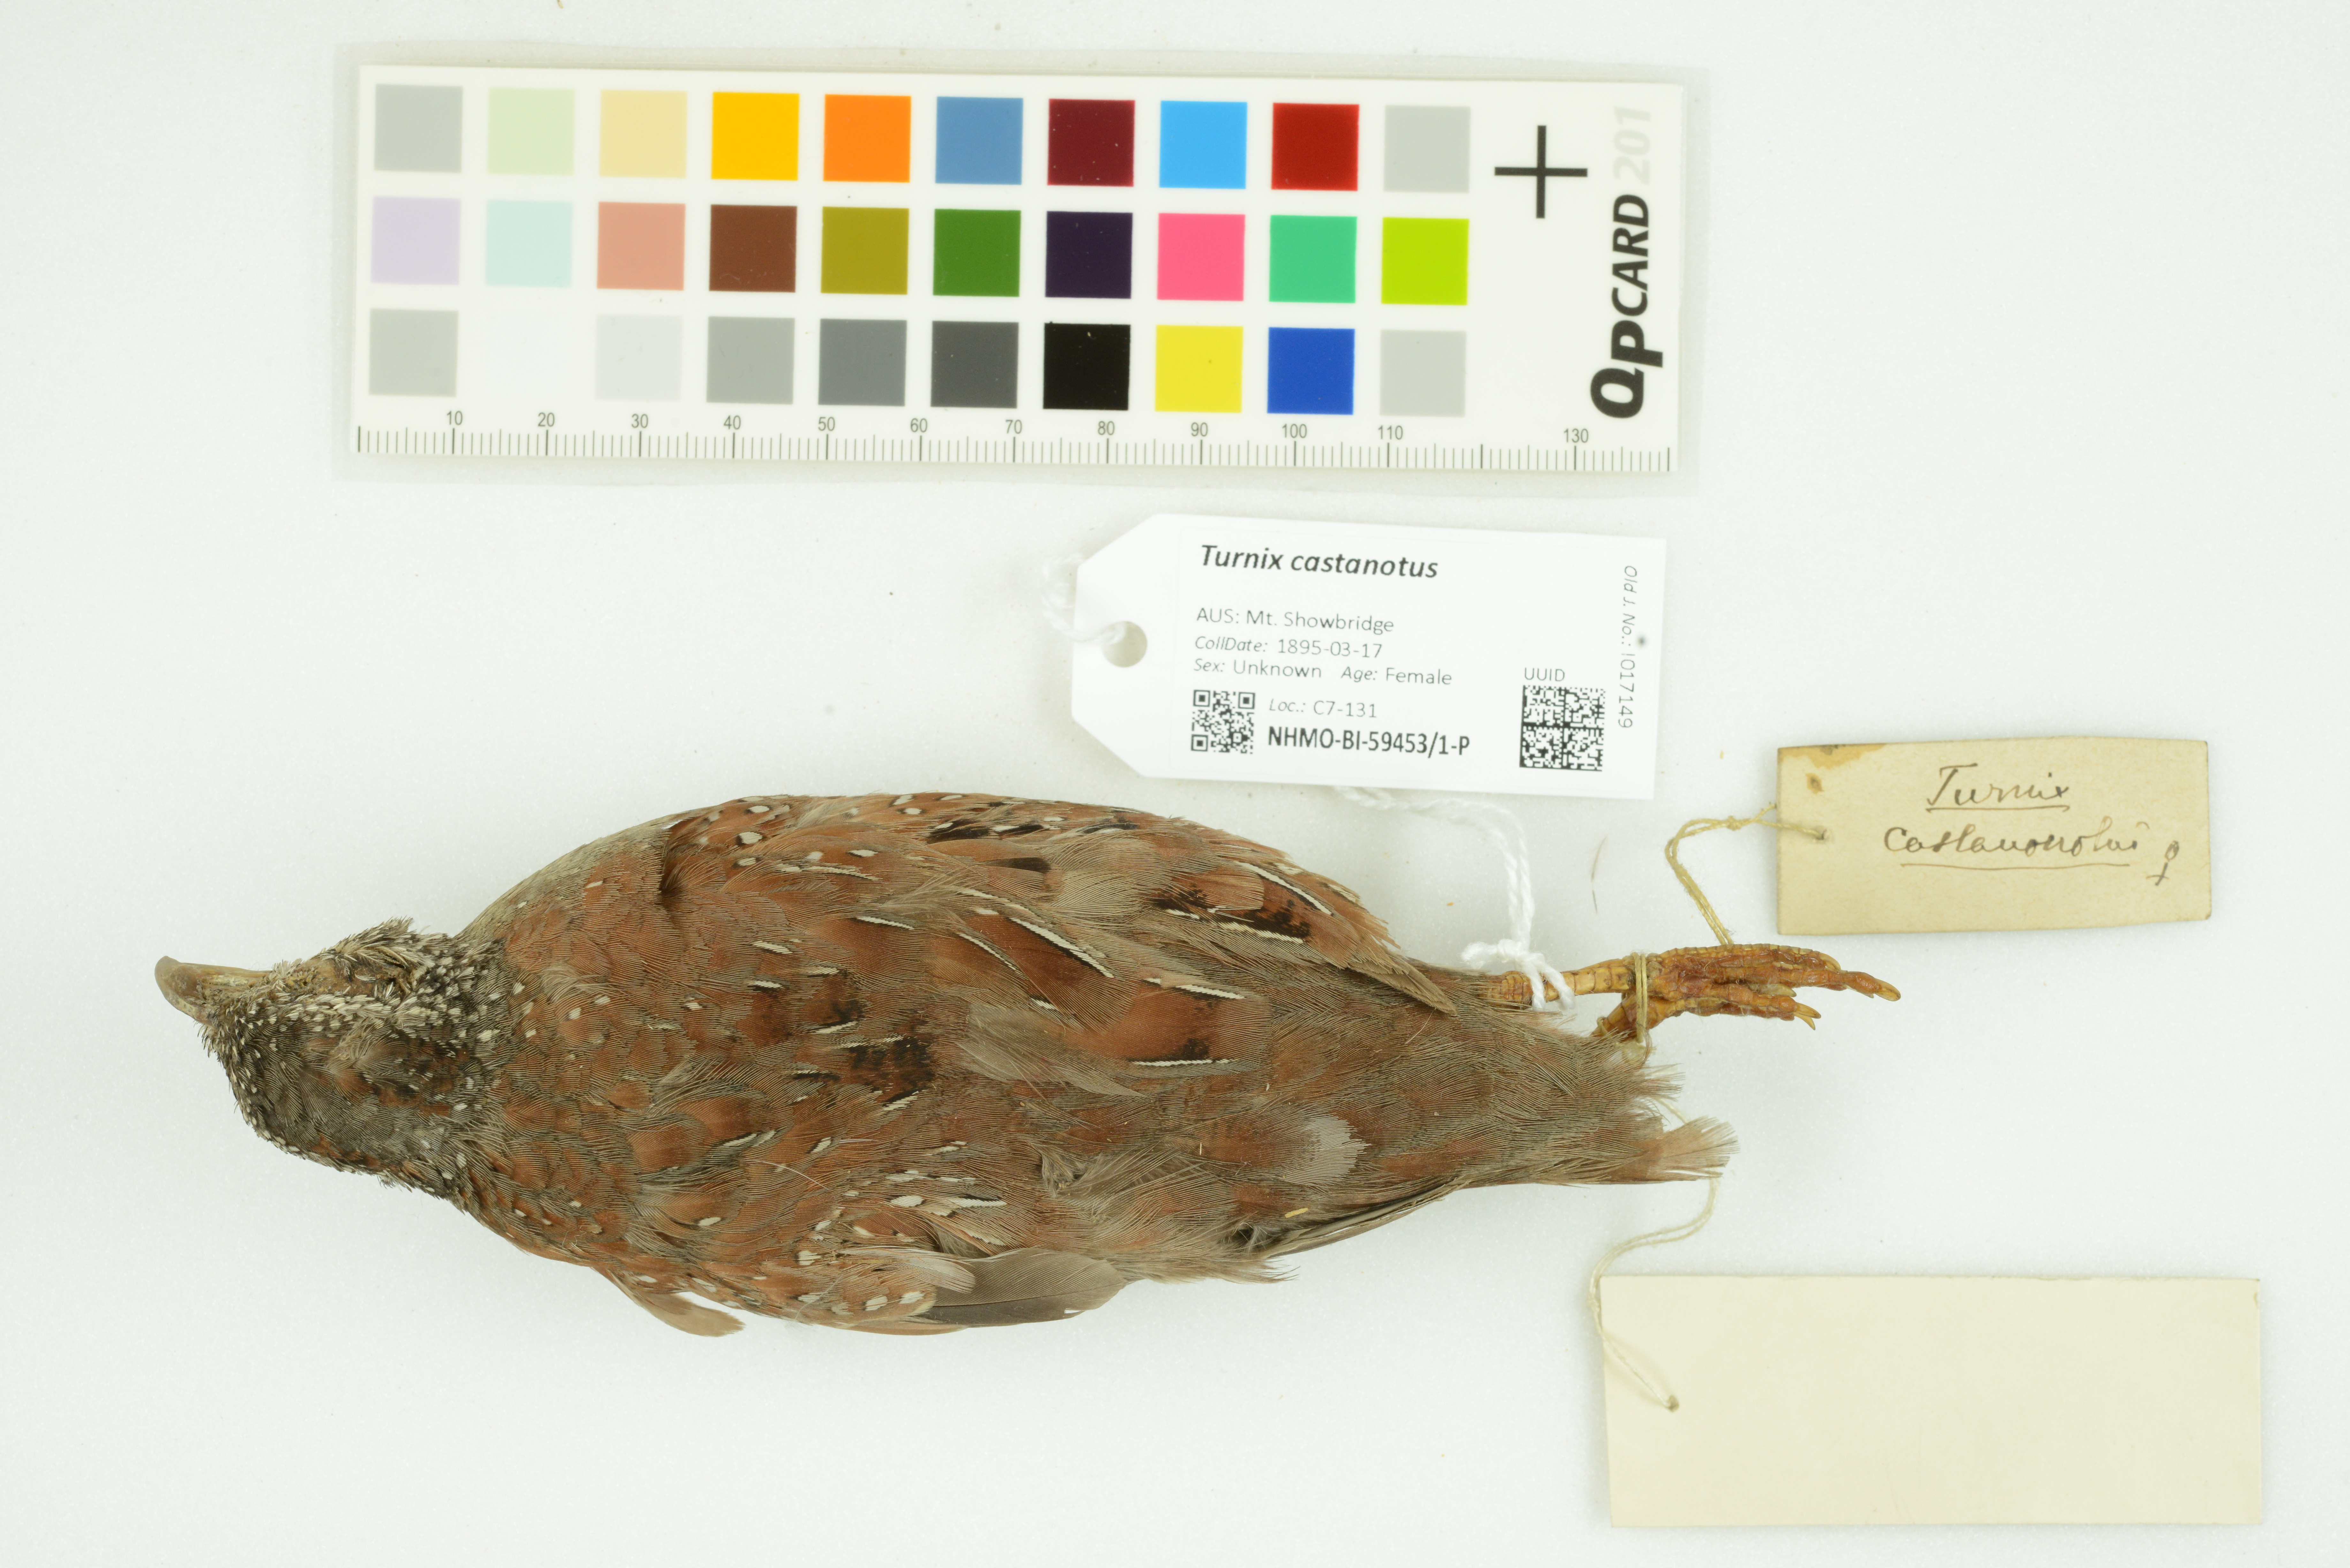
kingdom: Animalia
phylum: Chordata
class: Aves
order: Charadriiformes
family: Turnicidae
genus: Turnix
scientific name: Turnix castanotus
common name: Chestnut-backed buttonquail
